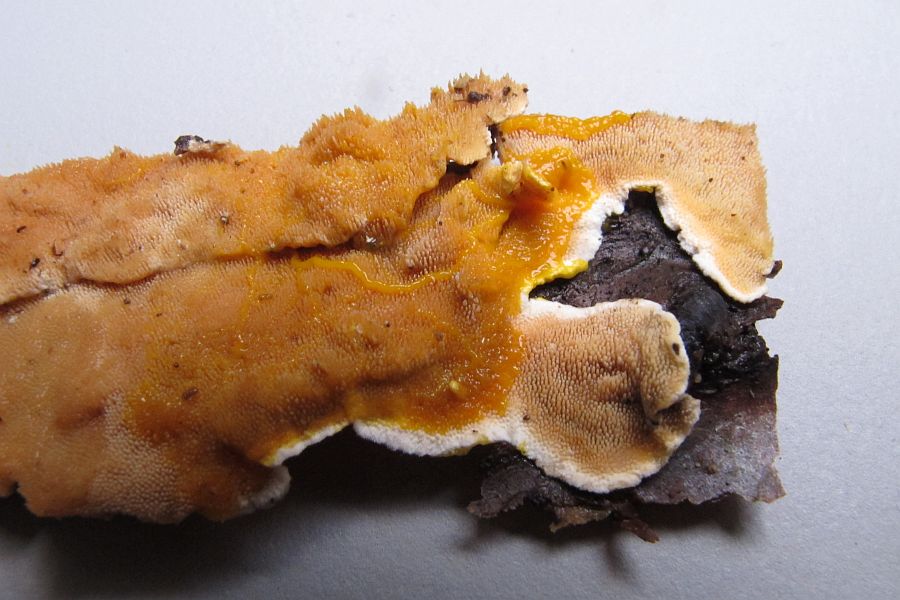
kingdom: Fungi
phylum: Basidiomycota
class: Agaricomycetes
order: Polyporales
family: Steccherinaceae
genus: Steccherinum
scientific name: Steccherinum ochraceum
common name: almindelig skønpig
